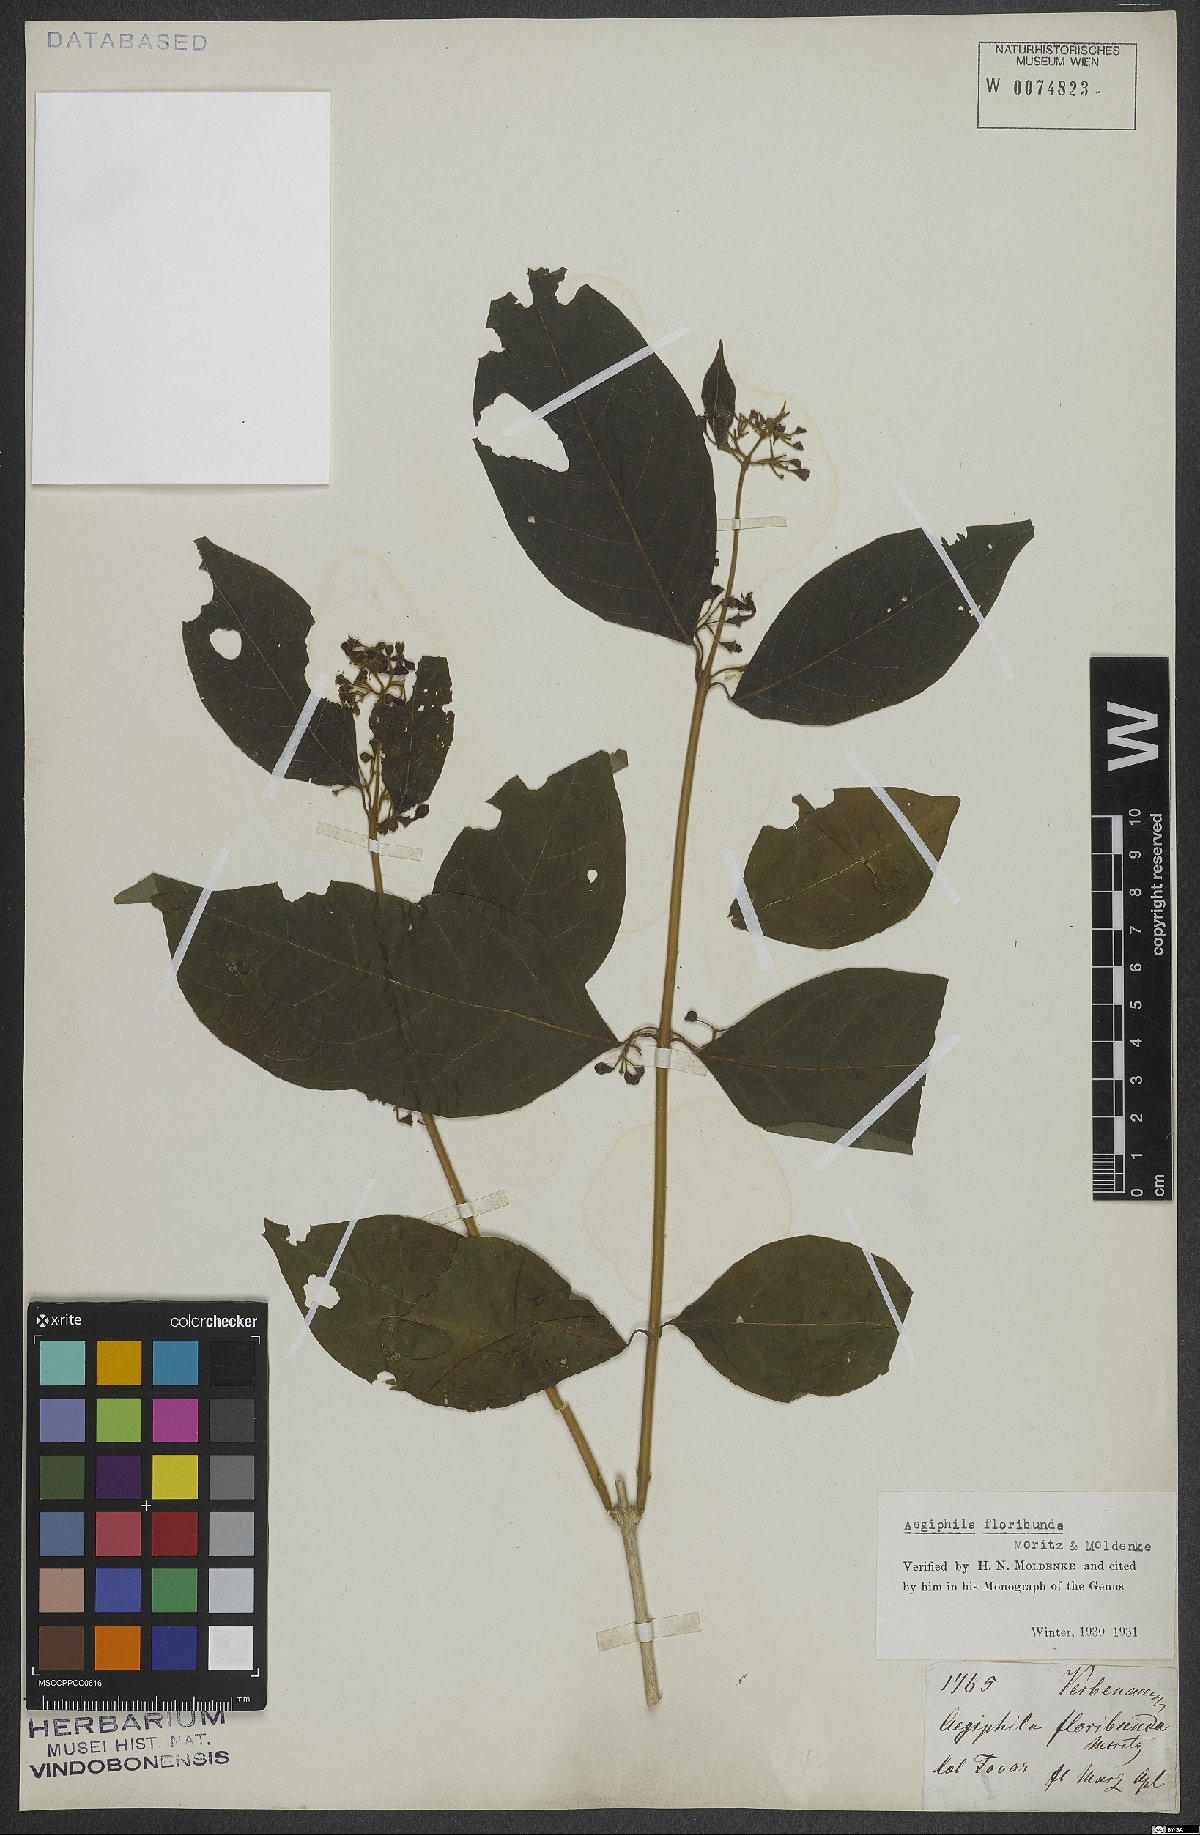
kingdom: Plantae
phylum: Tracheophyta
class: Magnoliopsida
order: Lamiales
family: Lamiaceae
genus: Aegiphila
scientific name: Aegiphila floribunda
